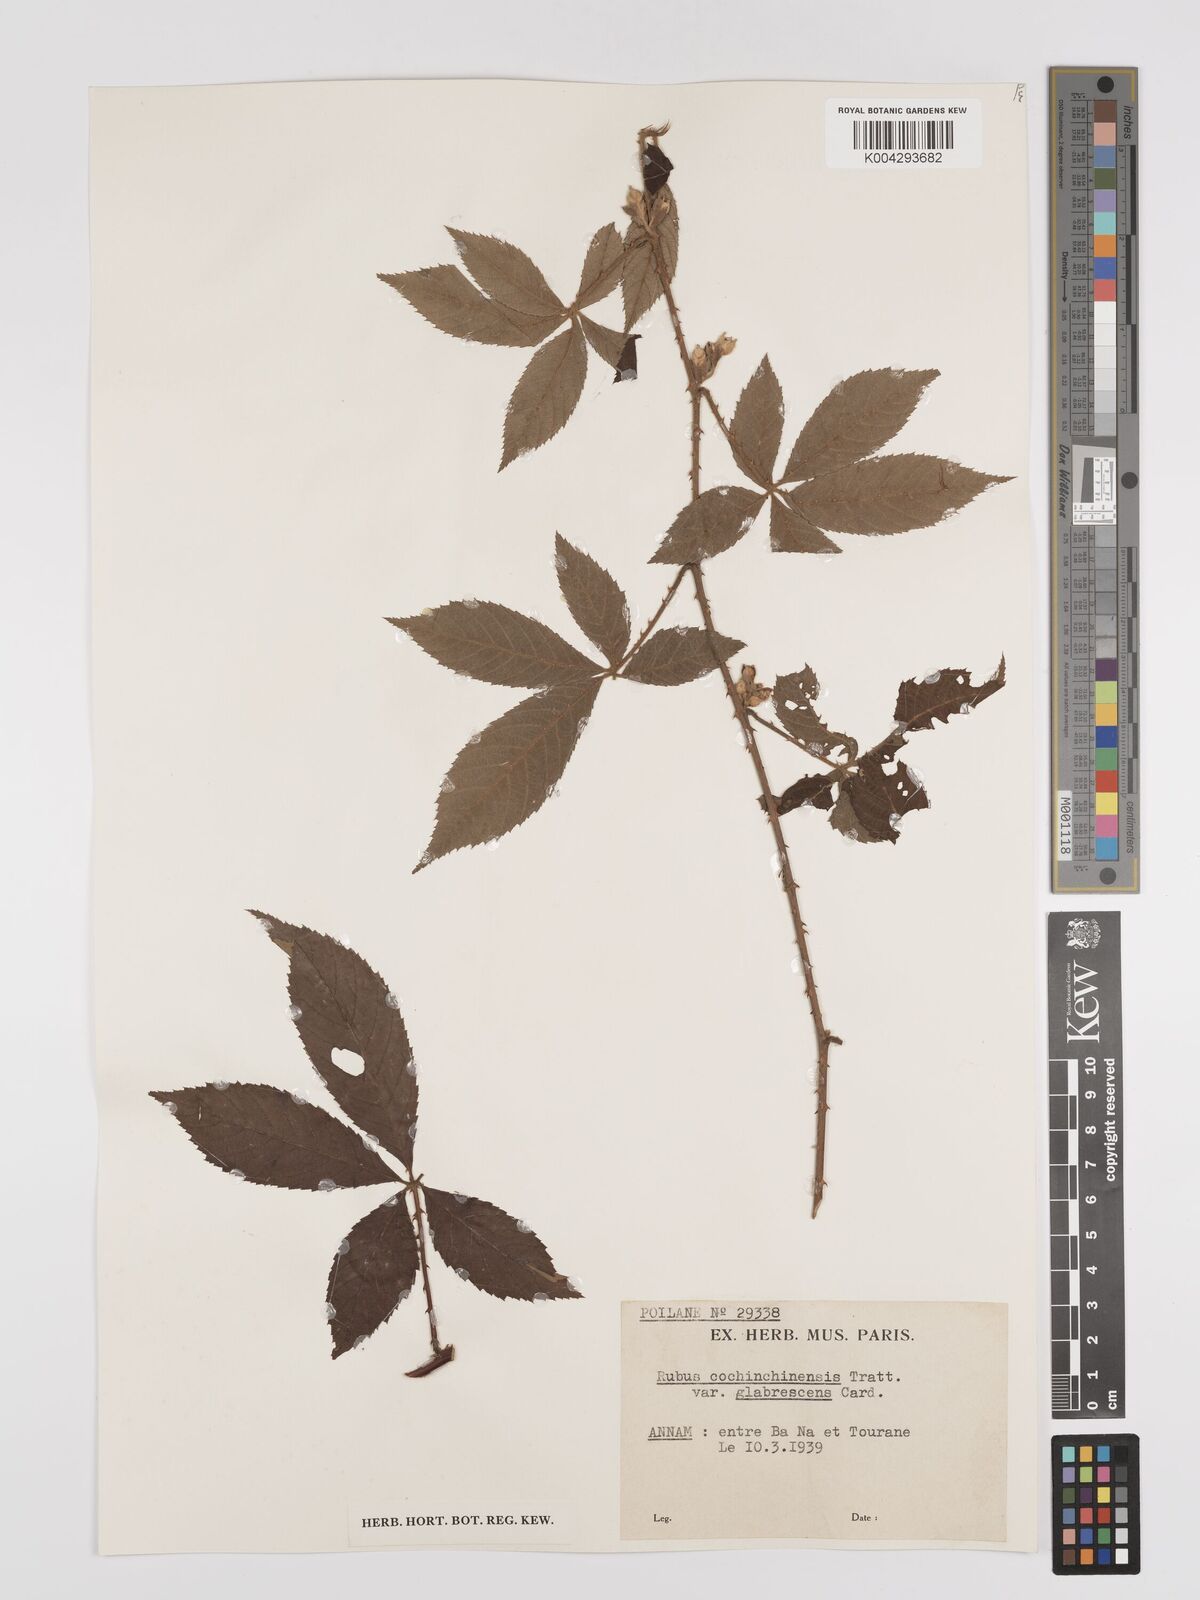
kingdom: Plantae
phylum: Tracheophyta
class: Magnoliopsida
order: Rosales
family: Rosaceae
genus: Rubus
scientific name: Rubus cochinchinensis
